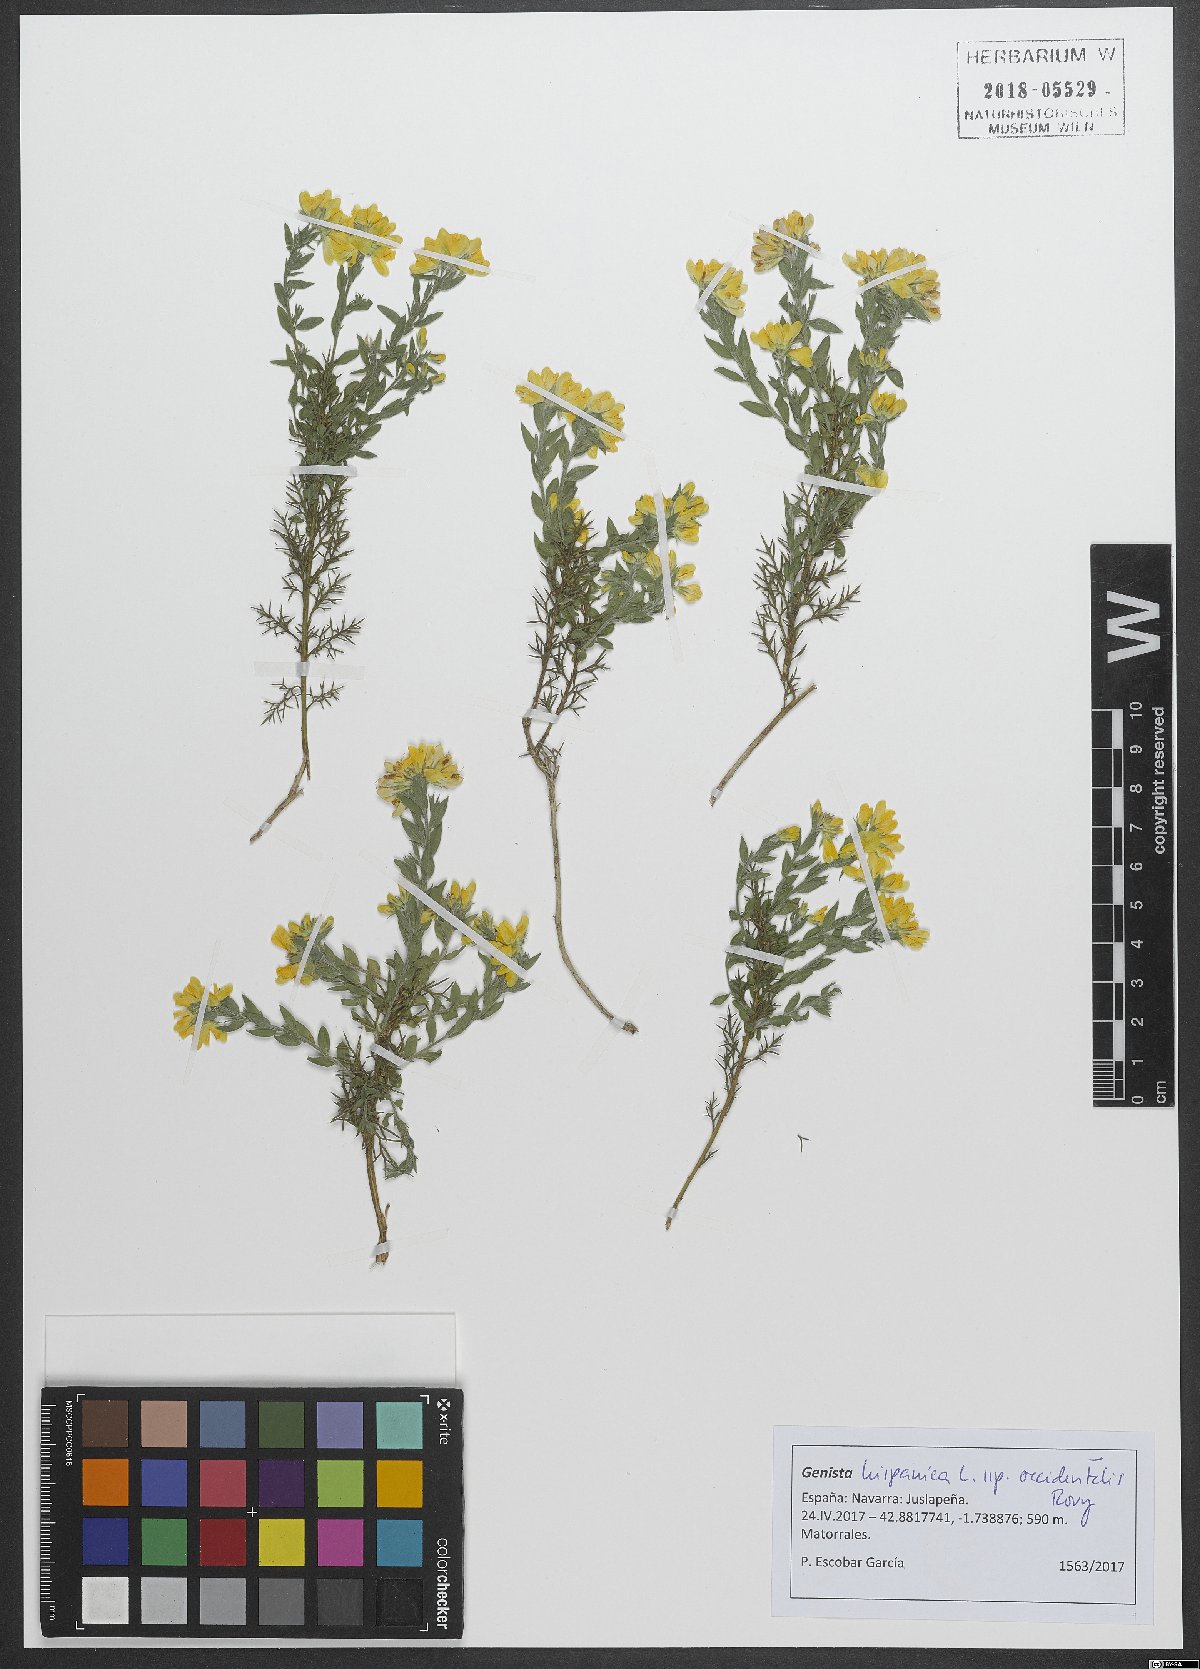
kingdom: Plantae
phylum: Tracheophyta
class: Magnoliopsida
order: Fabales
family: Fabaceae
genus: Genista
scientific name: Genista hispanica
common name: Spanish gorse
